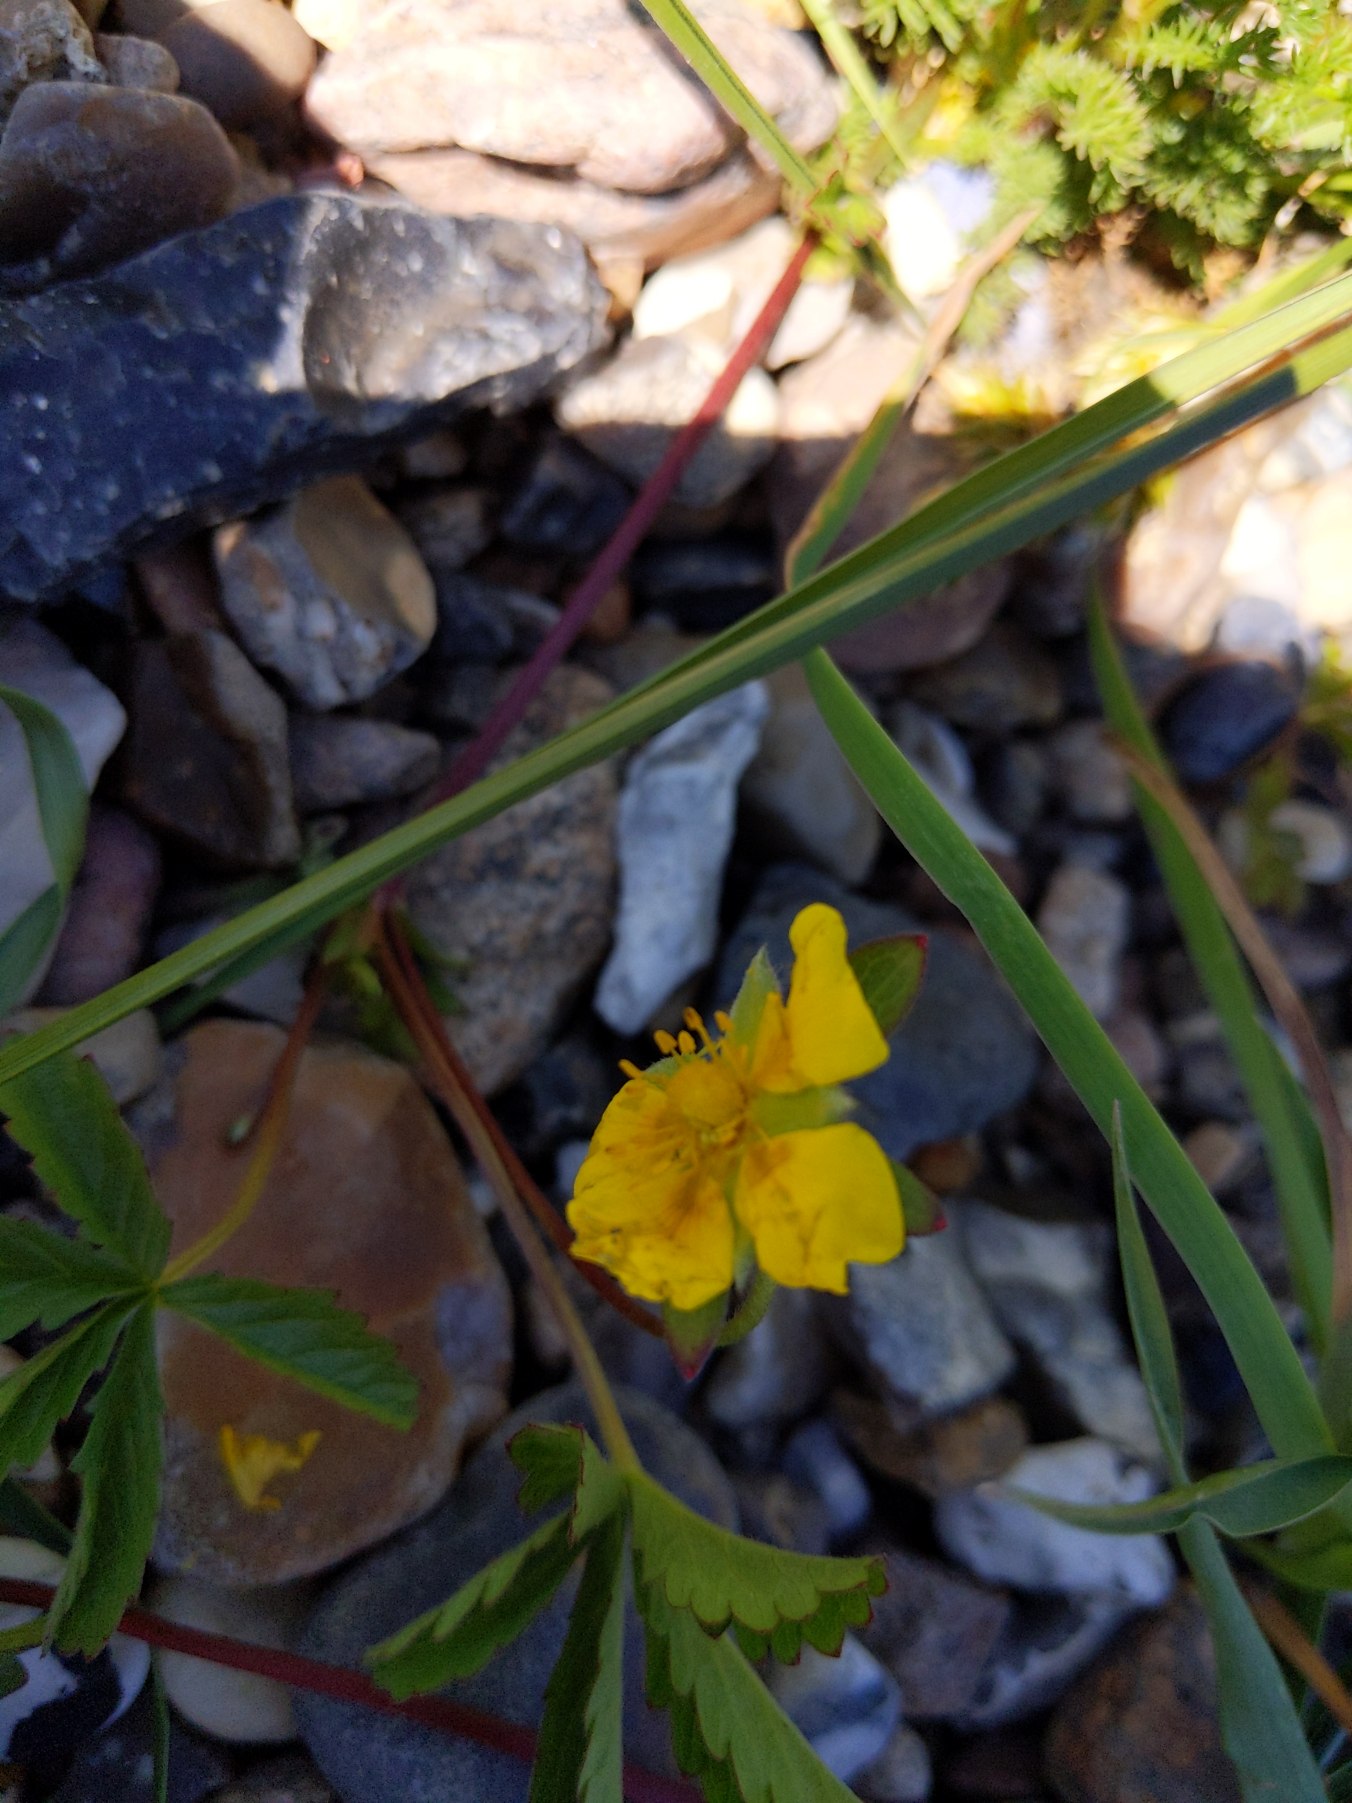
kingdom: Plantae
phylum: Tracheophyta
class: Magnoliopsida
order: Rosales
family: Rosaceae
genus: Potentilla
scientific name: Potentilla reptans
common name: Krybende potentil
